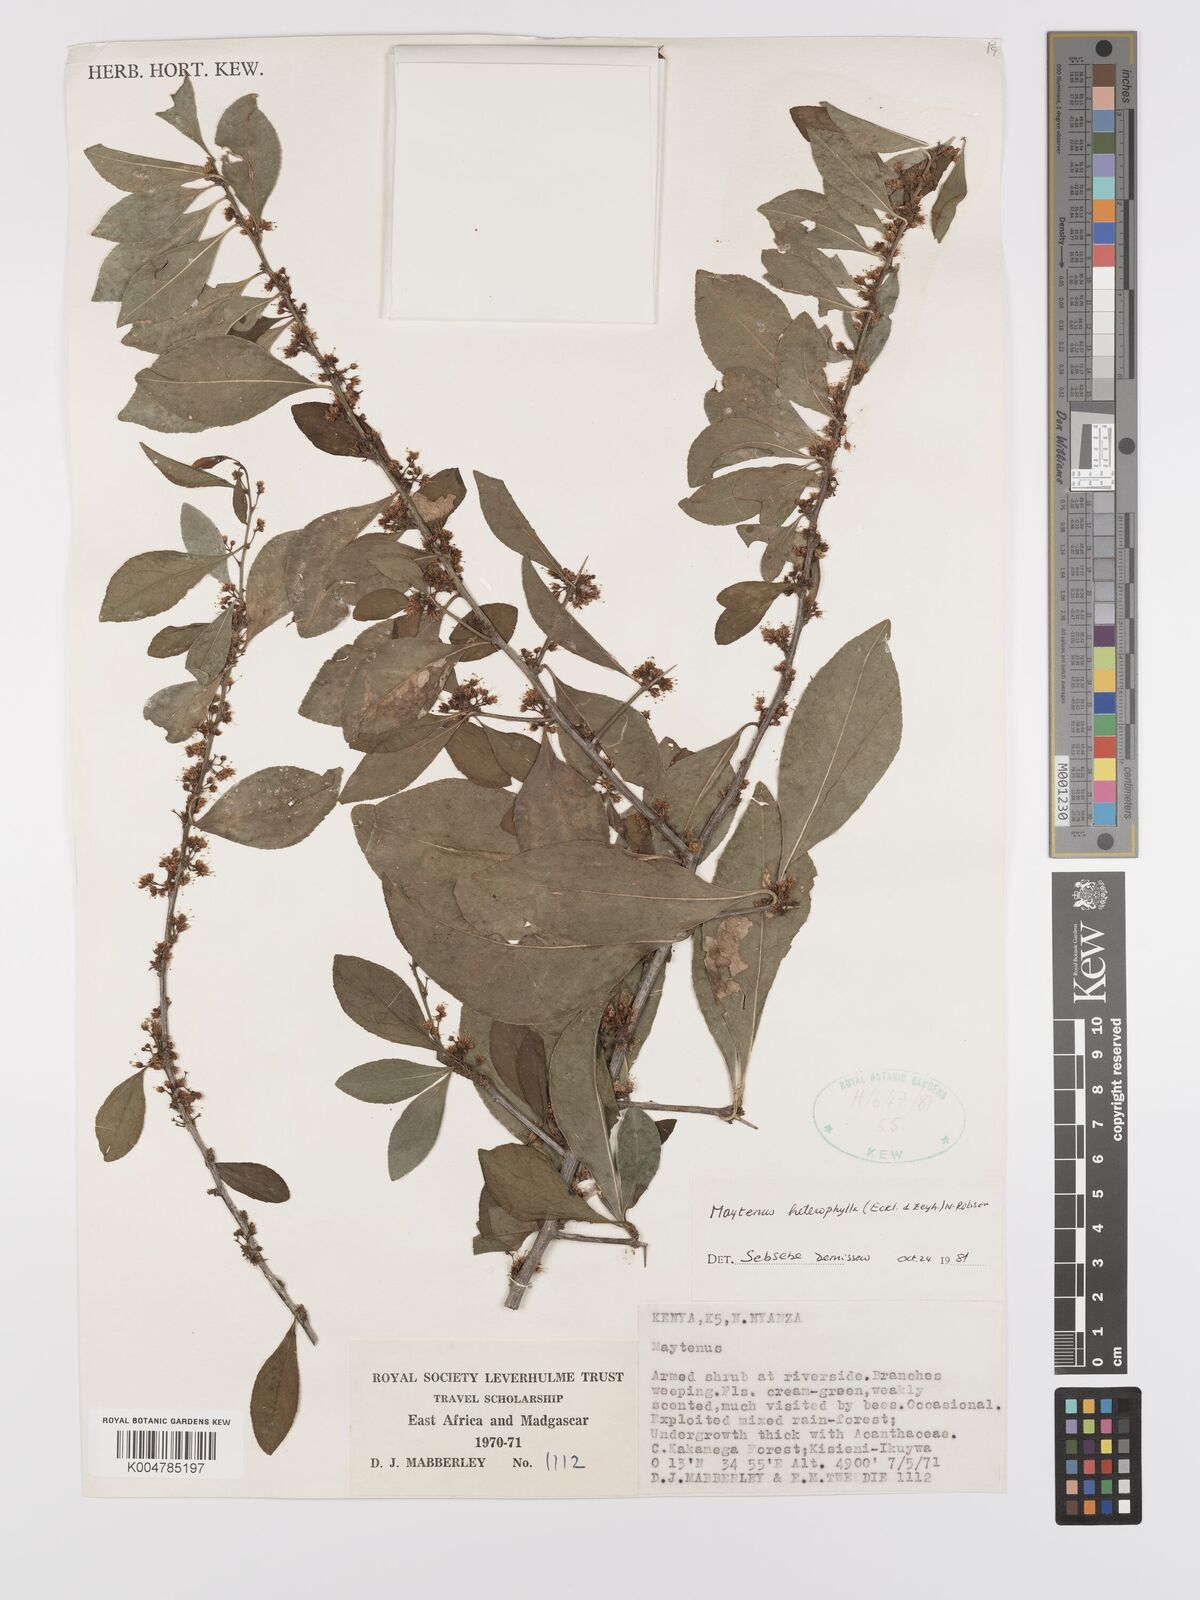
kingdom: Plantae
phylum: Tracheophyta
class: Magnoliopsida
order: Celastrales
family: Celastraceae
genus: Gymnosporia
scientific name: Gymnosporia heterophylla
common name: Angle-stem spikethorn
